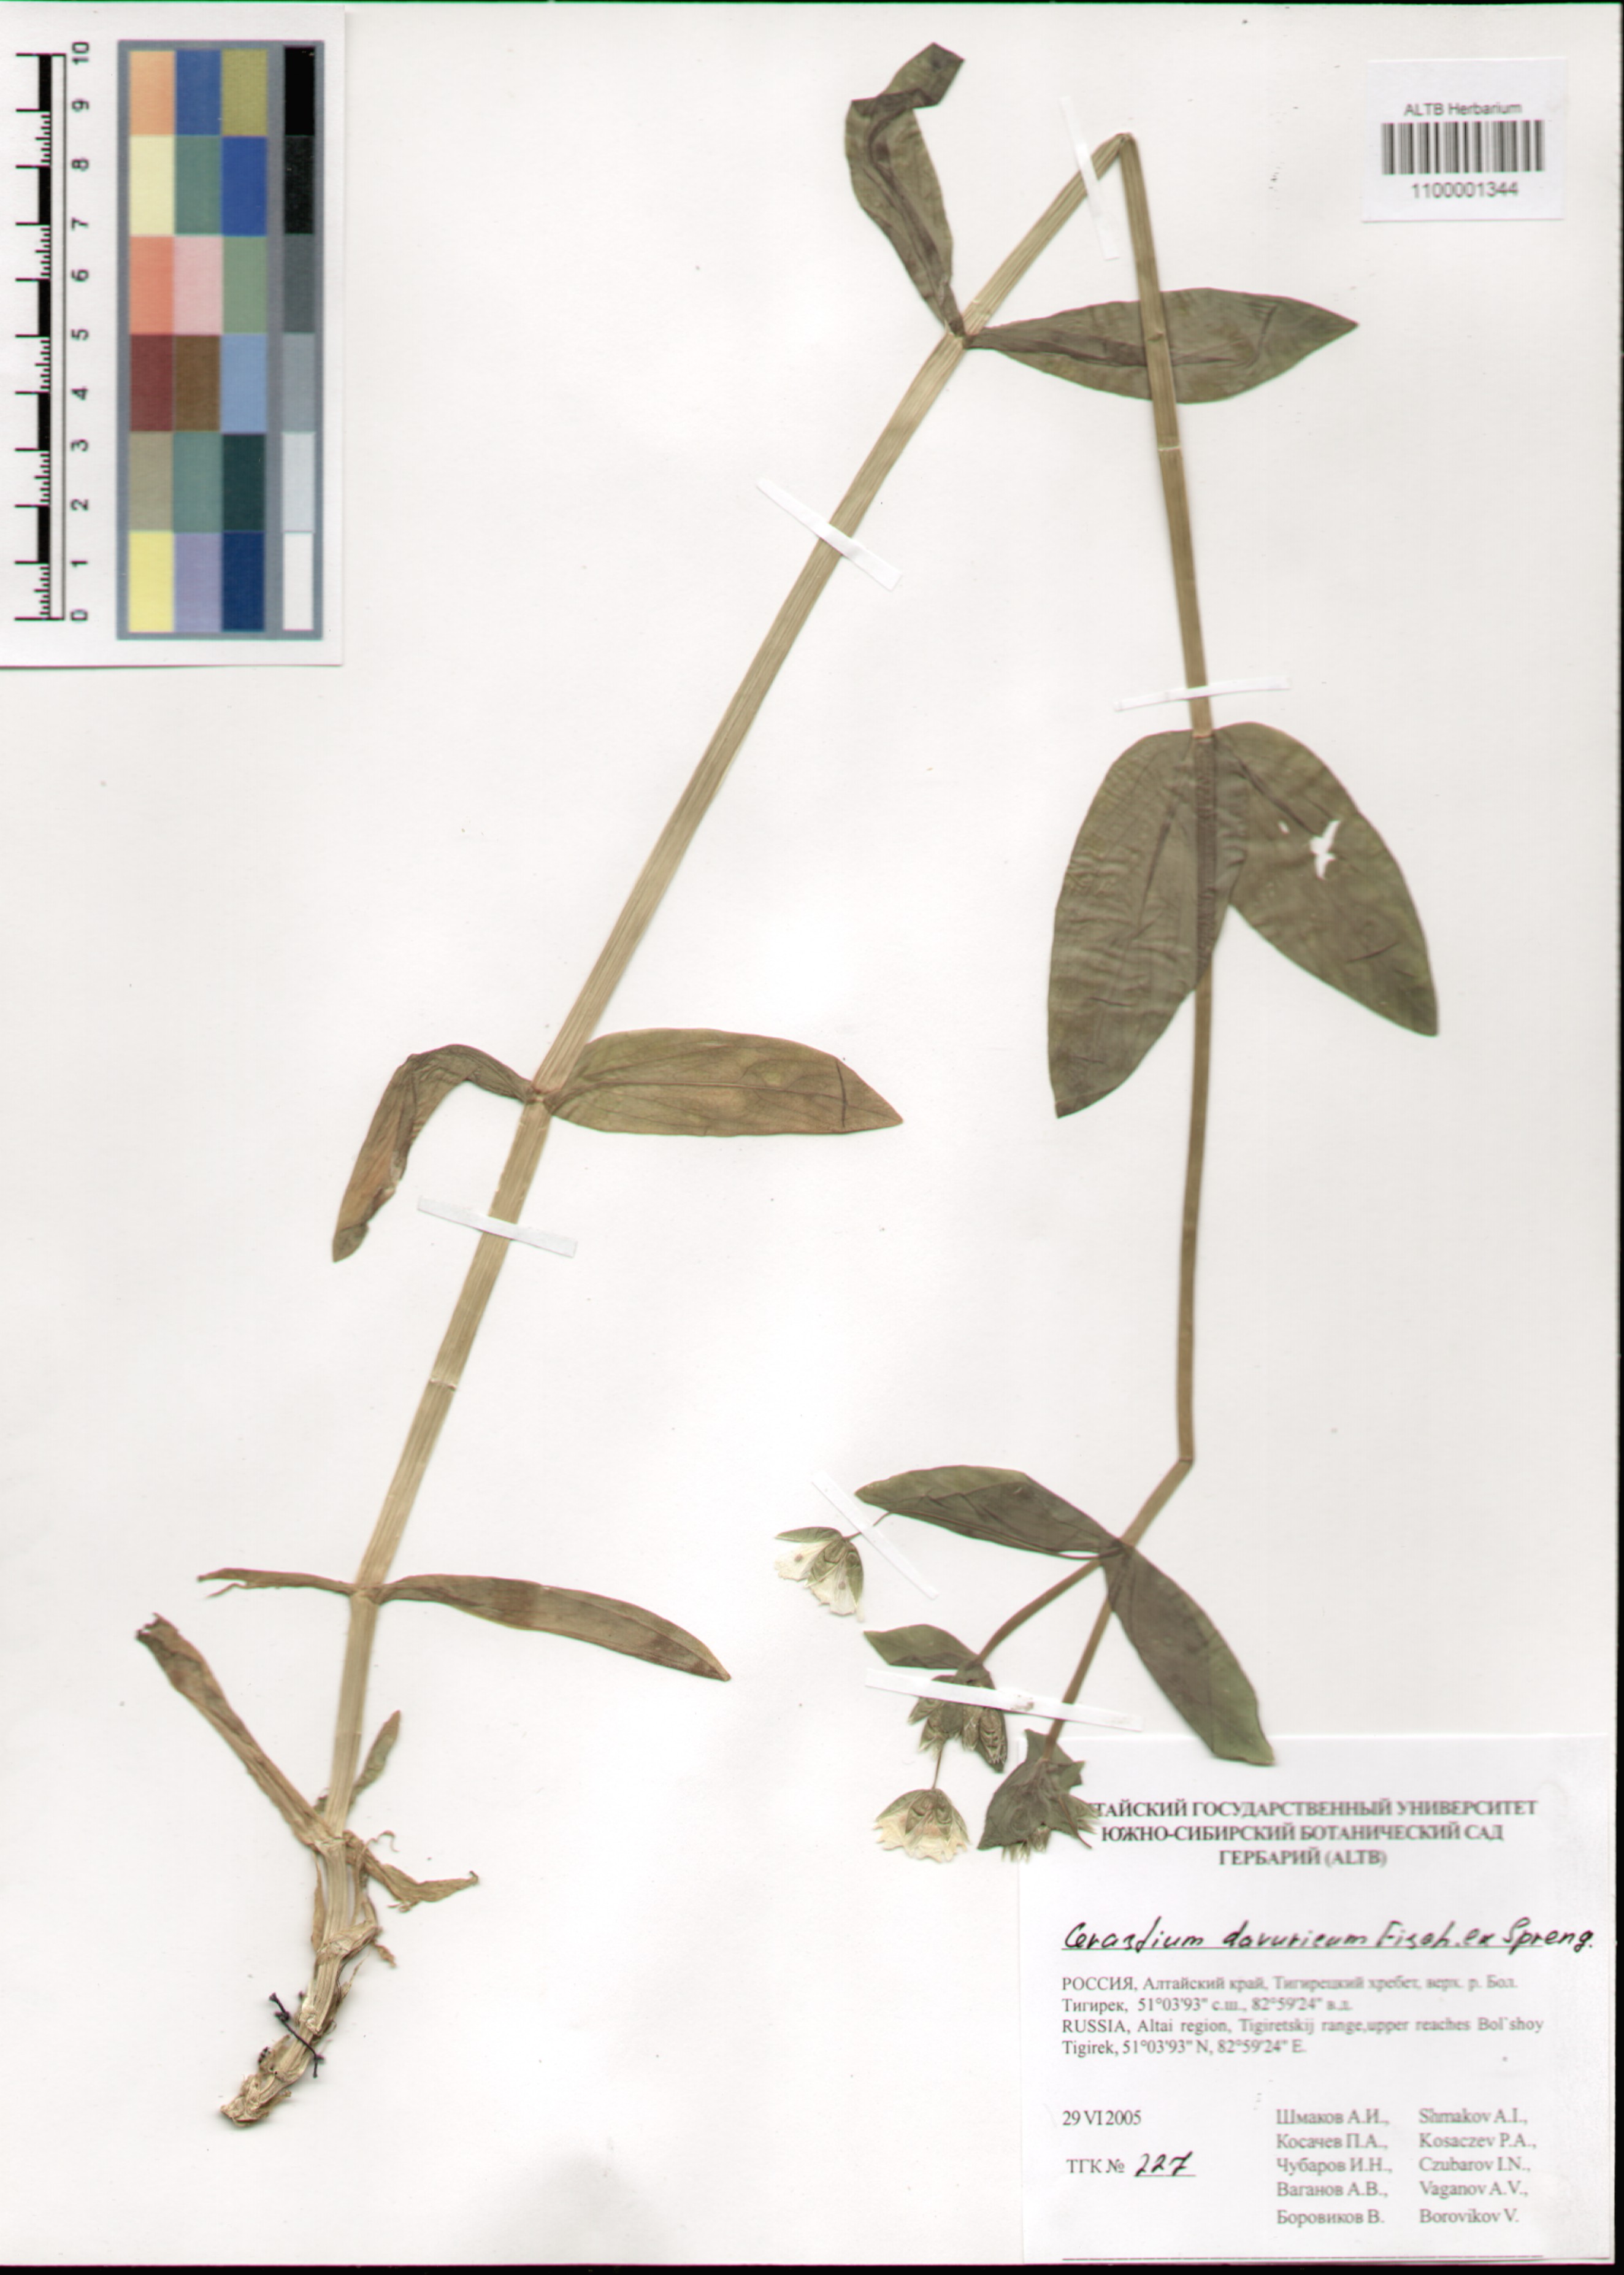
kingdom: Plantae
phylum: Tracheophyta
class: Magnoliopsida
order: Caryophyllales
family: Caryophyllaceae
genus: Dichodon
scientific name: Dichodon davuricum
